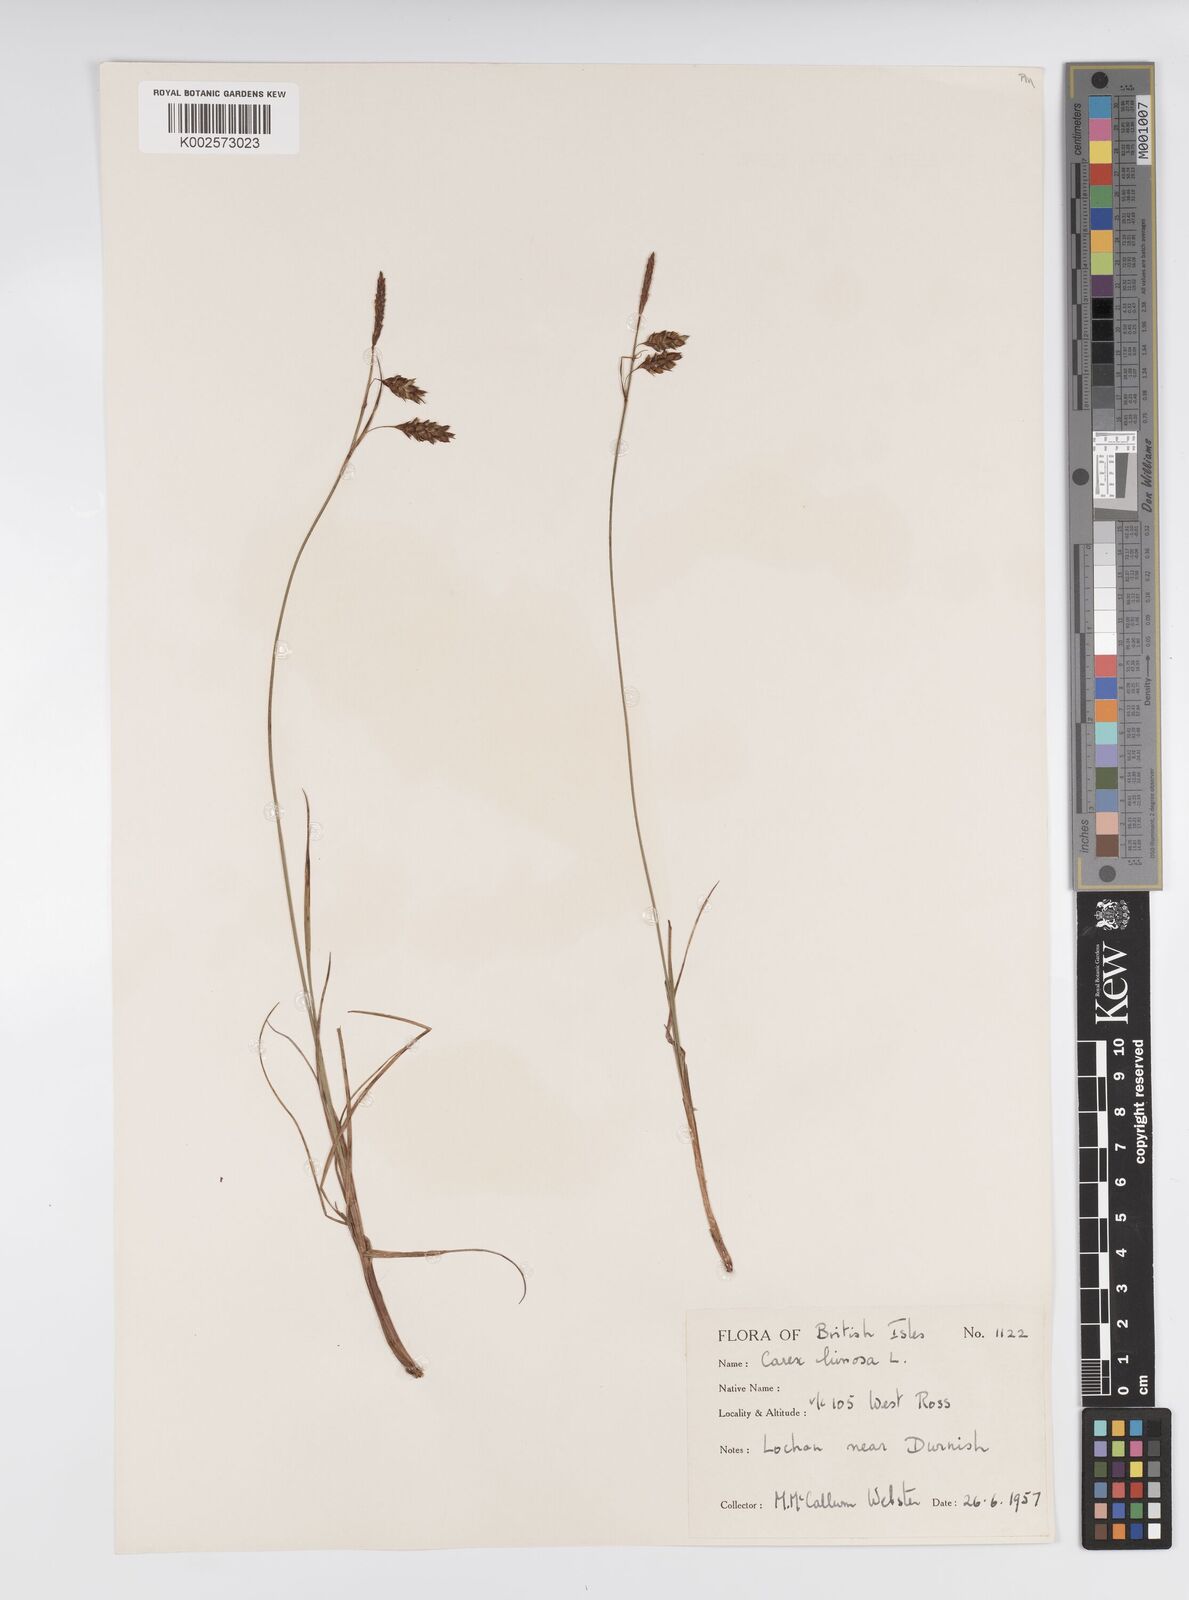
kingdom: Plantae
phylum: Tracheophyta
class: Liliopsida
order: Poales
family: Cyperaceae
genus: Carex
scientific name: Carex limosa
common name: Bog sedge
